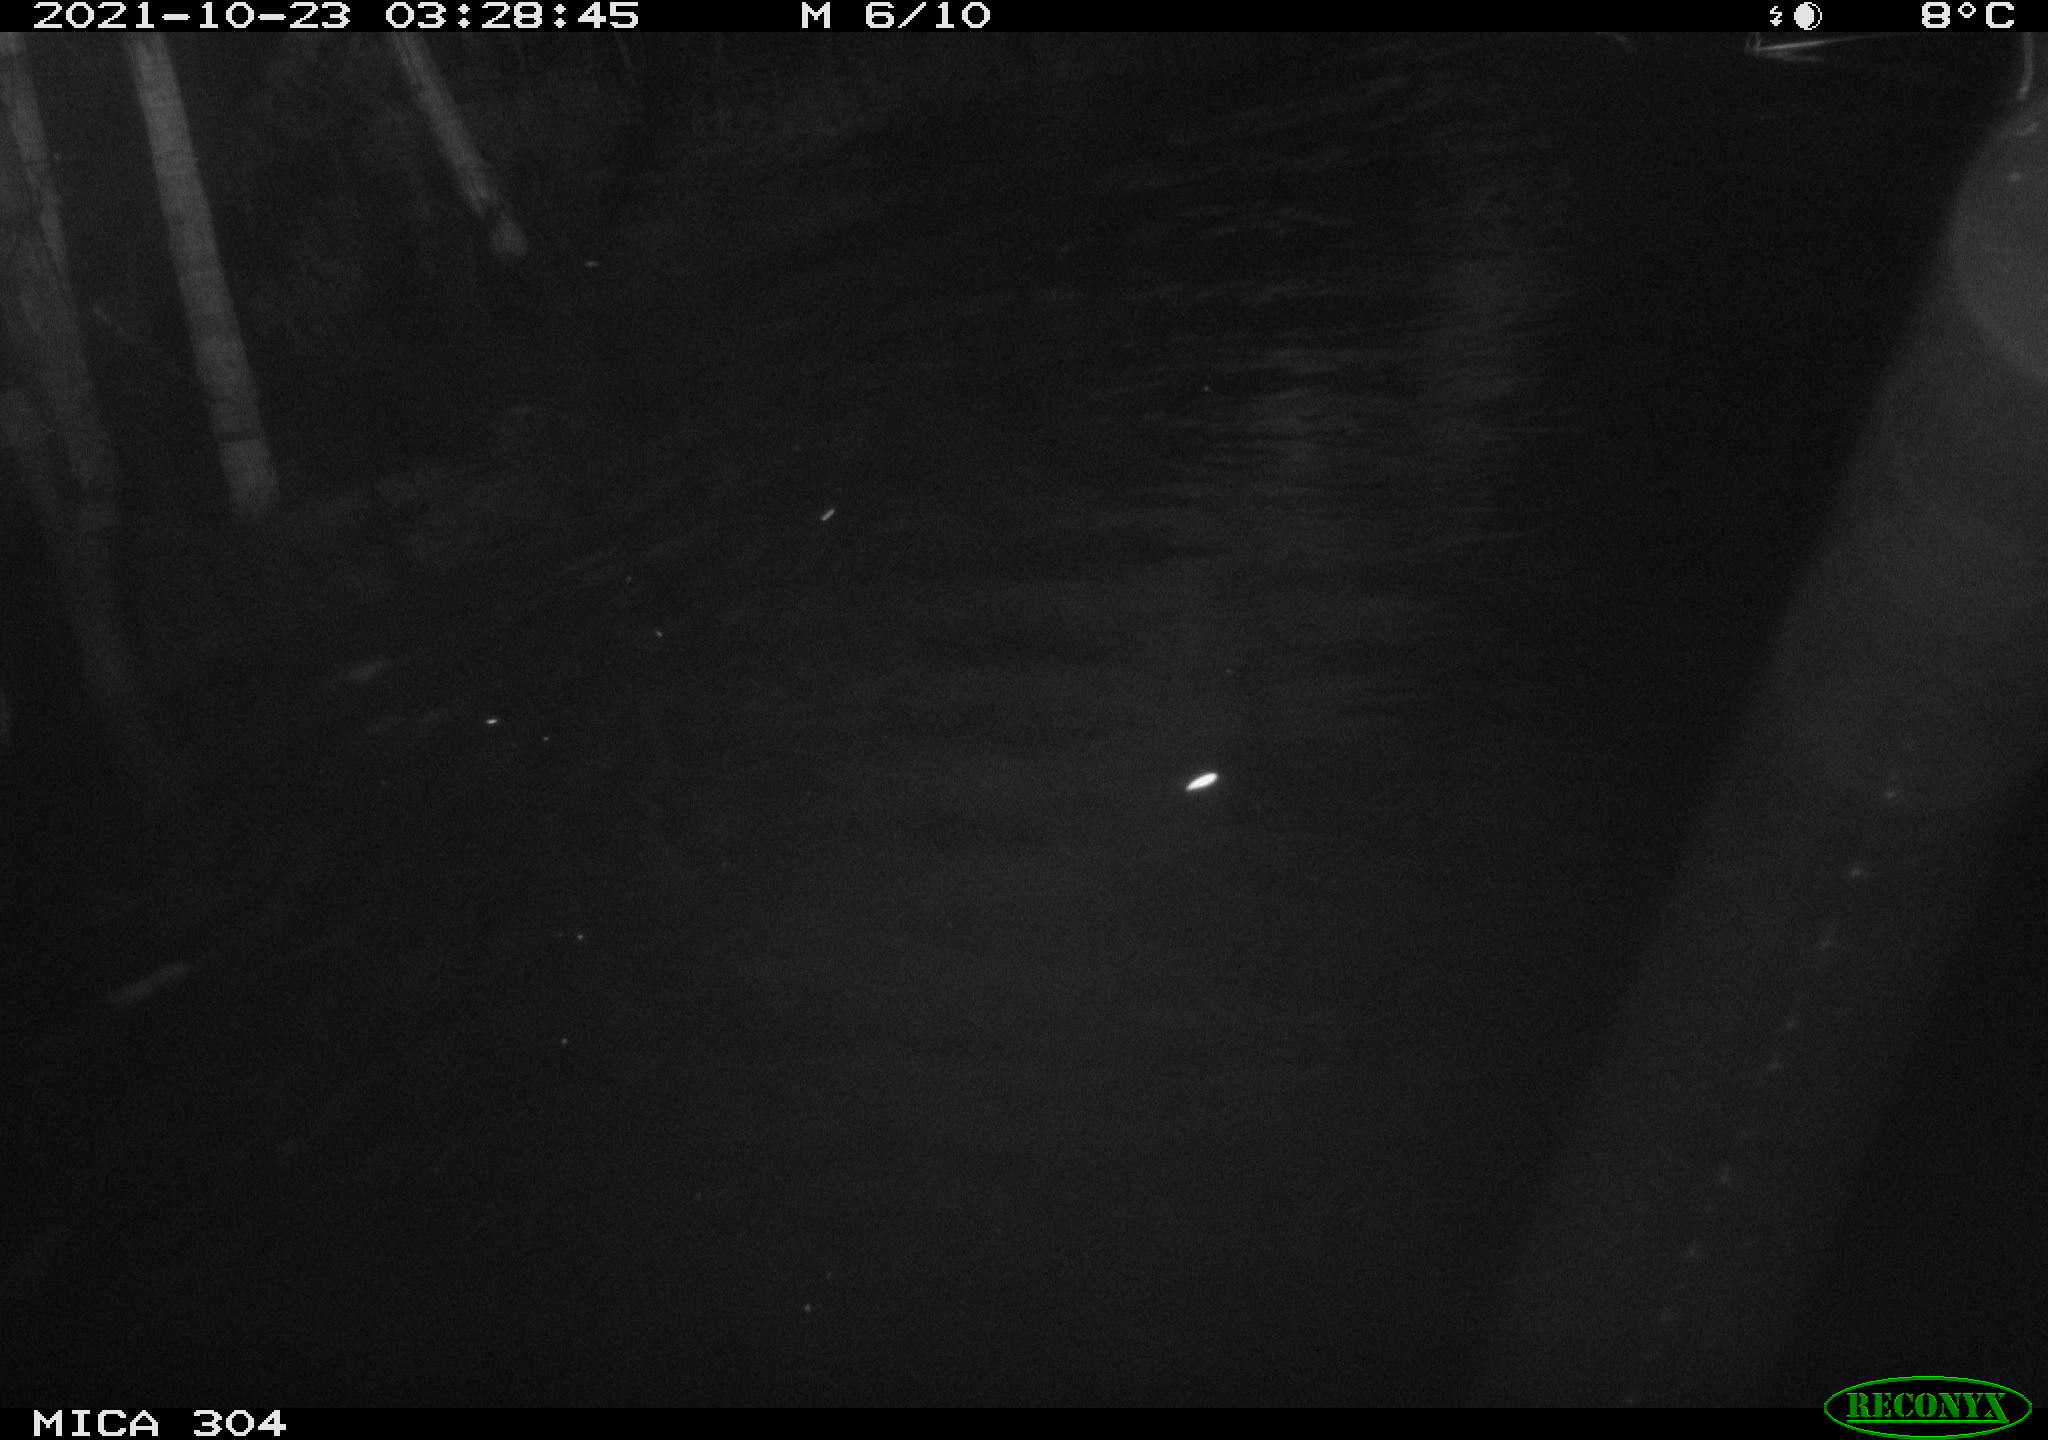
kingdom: Animalia
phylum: Chordata
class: Mammalia
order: Rodentia
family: Cricetidae
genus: Ondatra
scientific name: Ondatra zibethicus
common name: Muskrat
